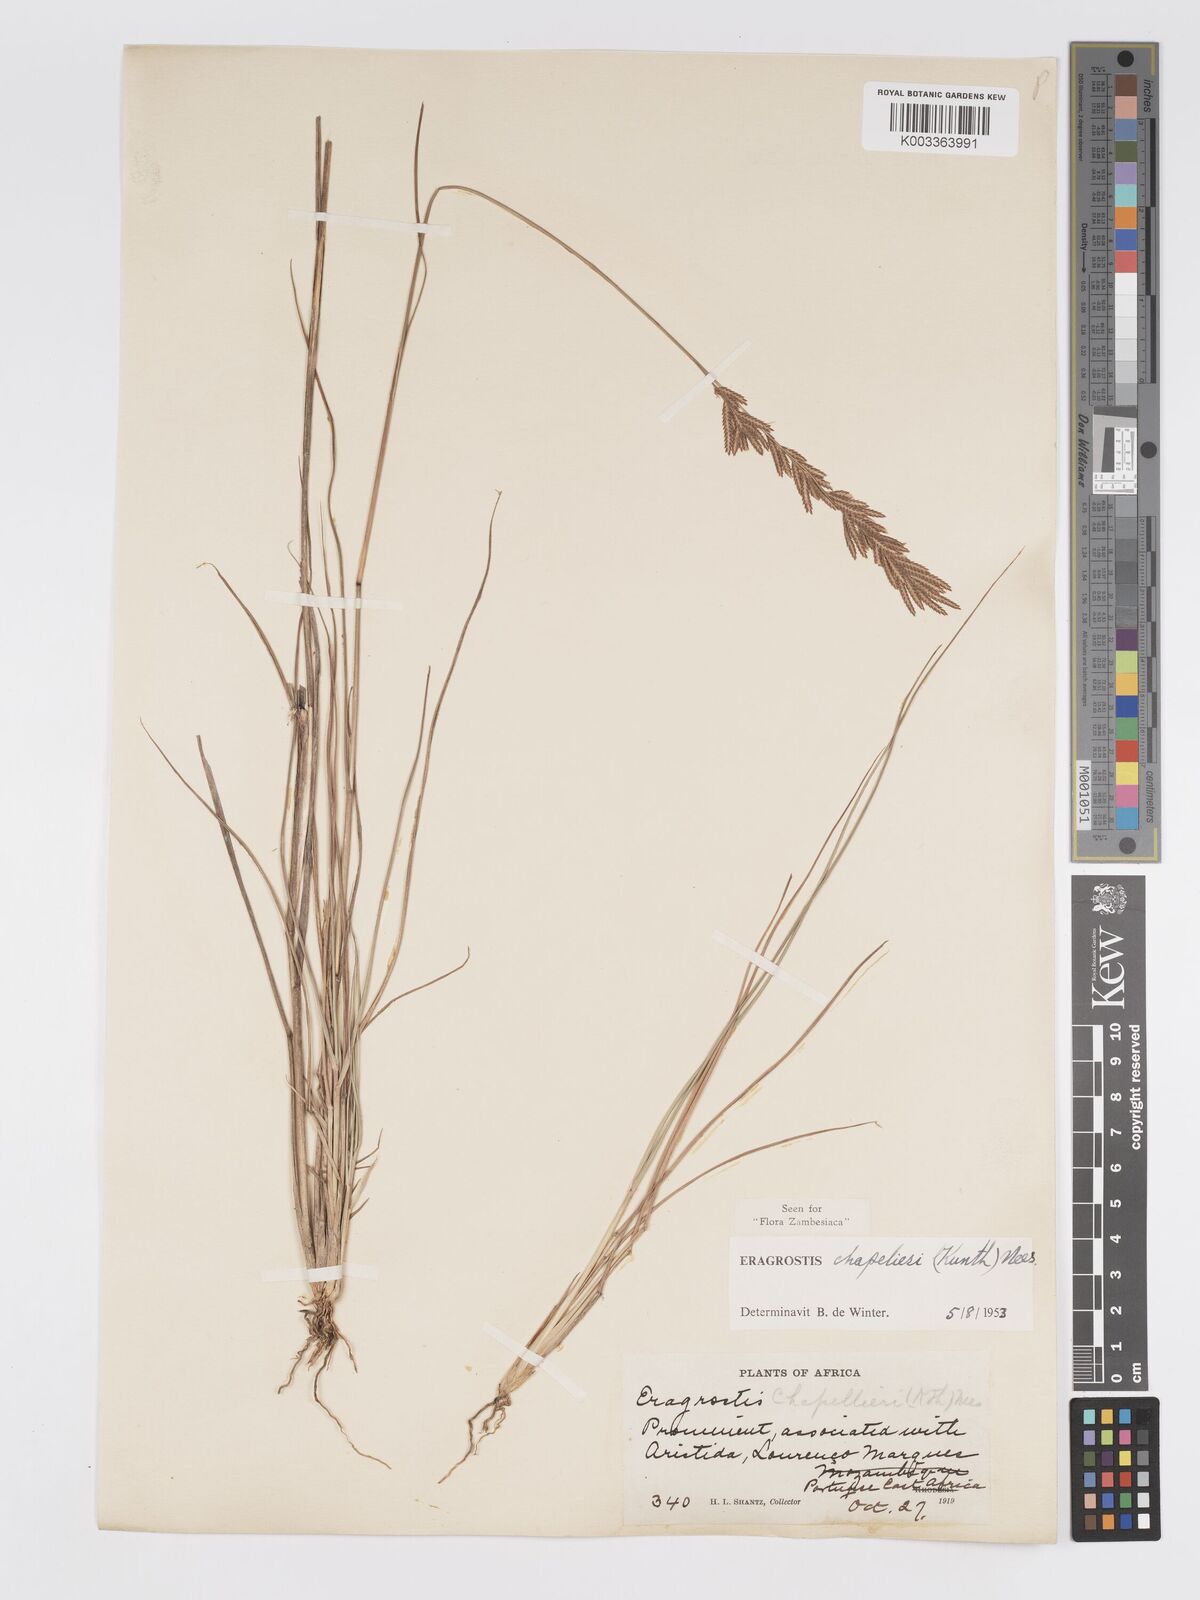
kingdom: Plantae
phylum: Tracheophyta
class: Liliopsida
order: Poales
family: Poaceae
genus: Eragrostis
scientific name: Eragrostis chapelieri
